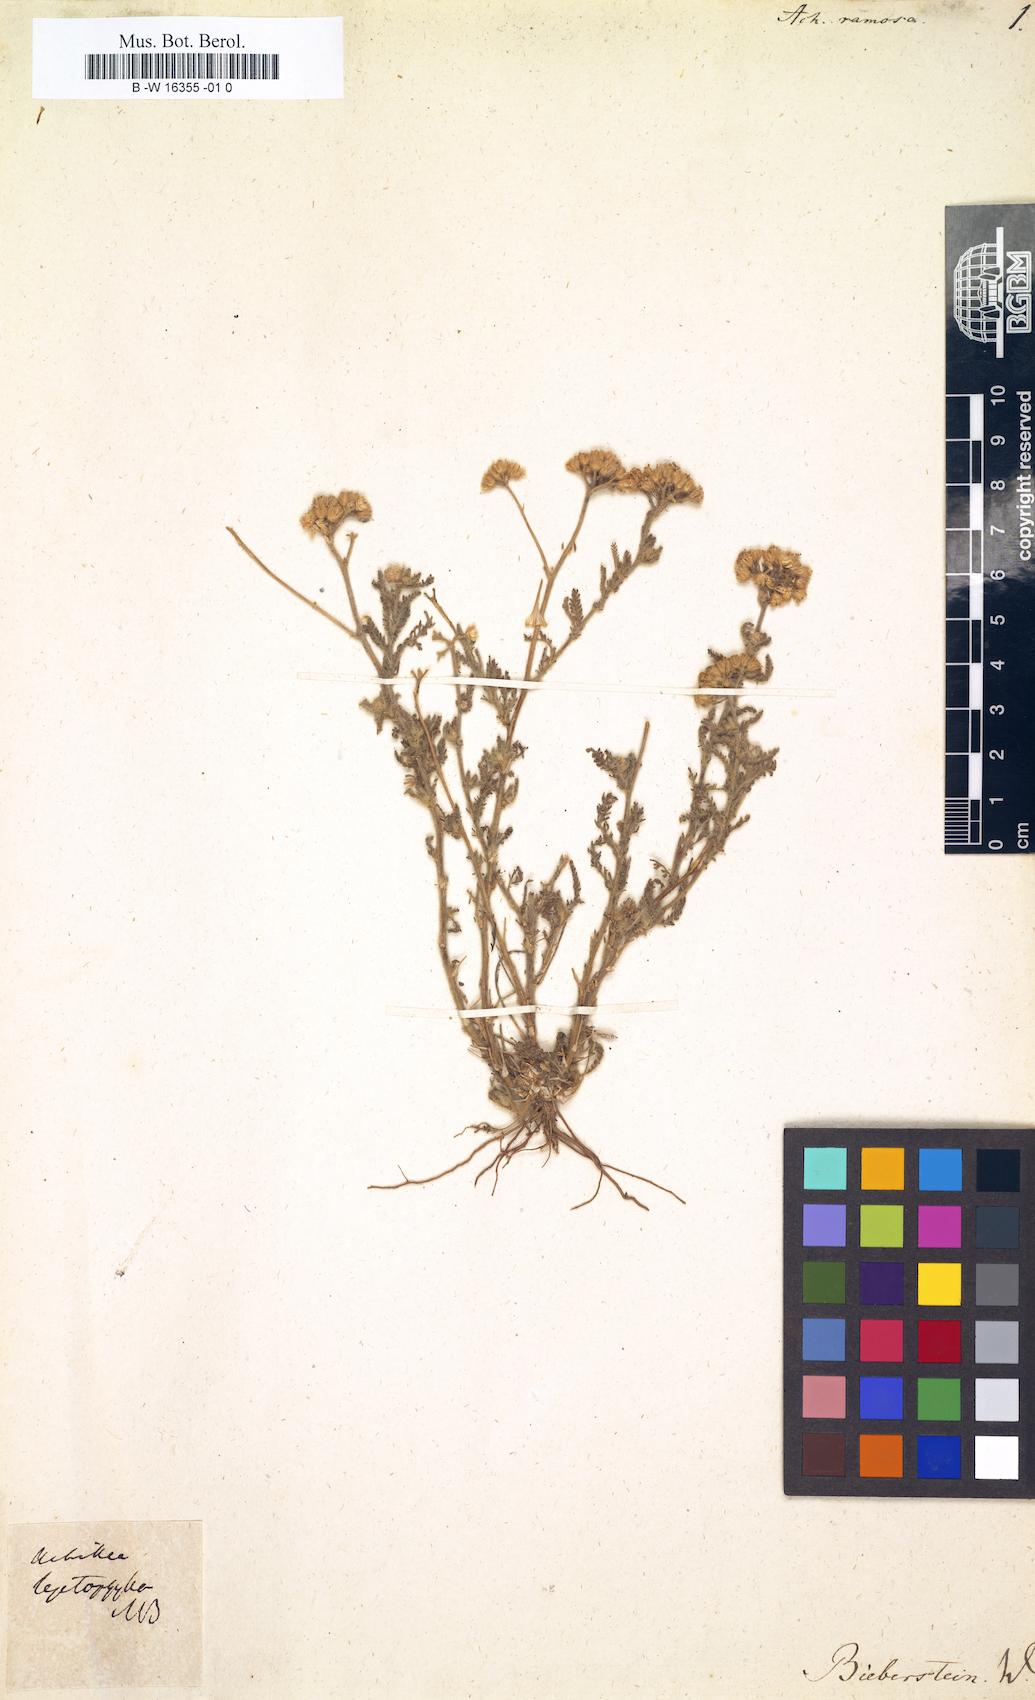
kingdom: Plantae
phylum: Tracheophyta
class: Magnoliopsida
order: Asterales
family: Asteraceae
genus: Achillea
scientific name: Achillea
